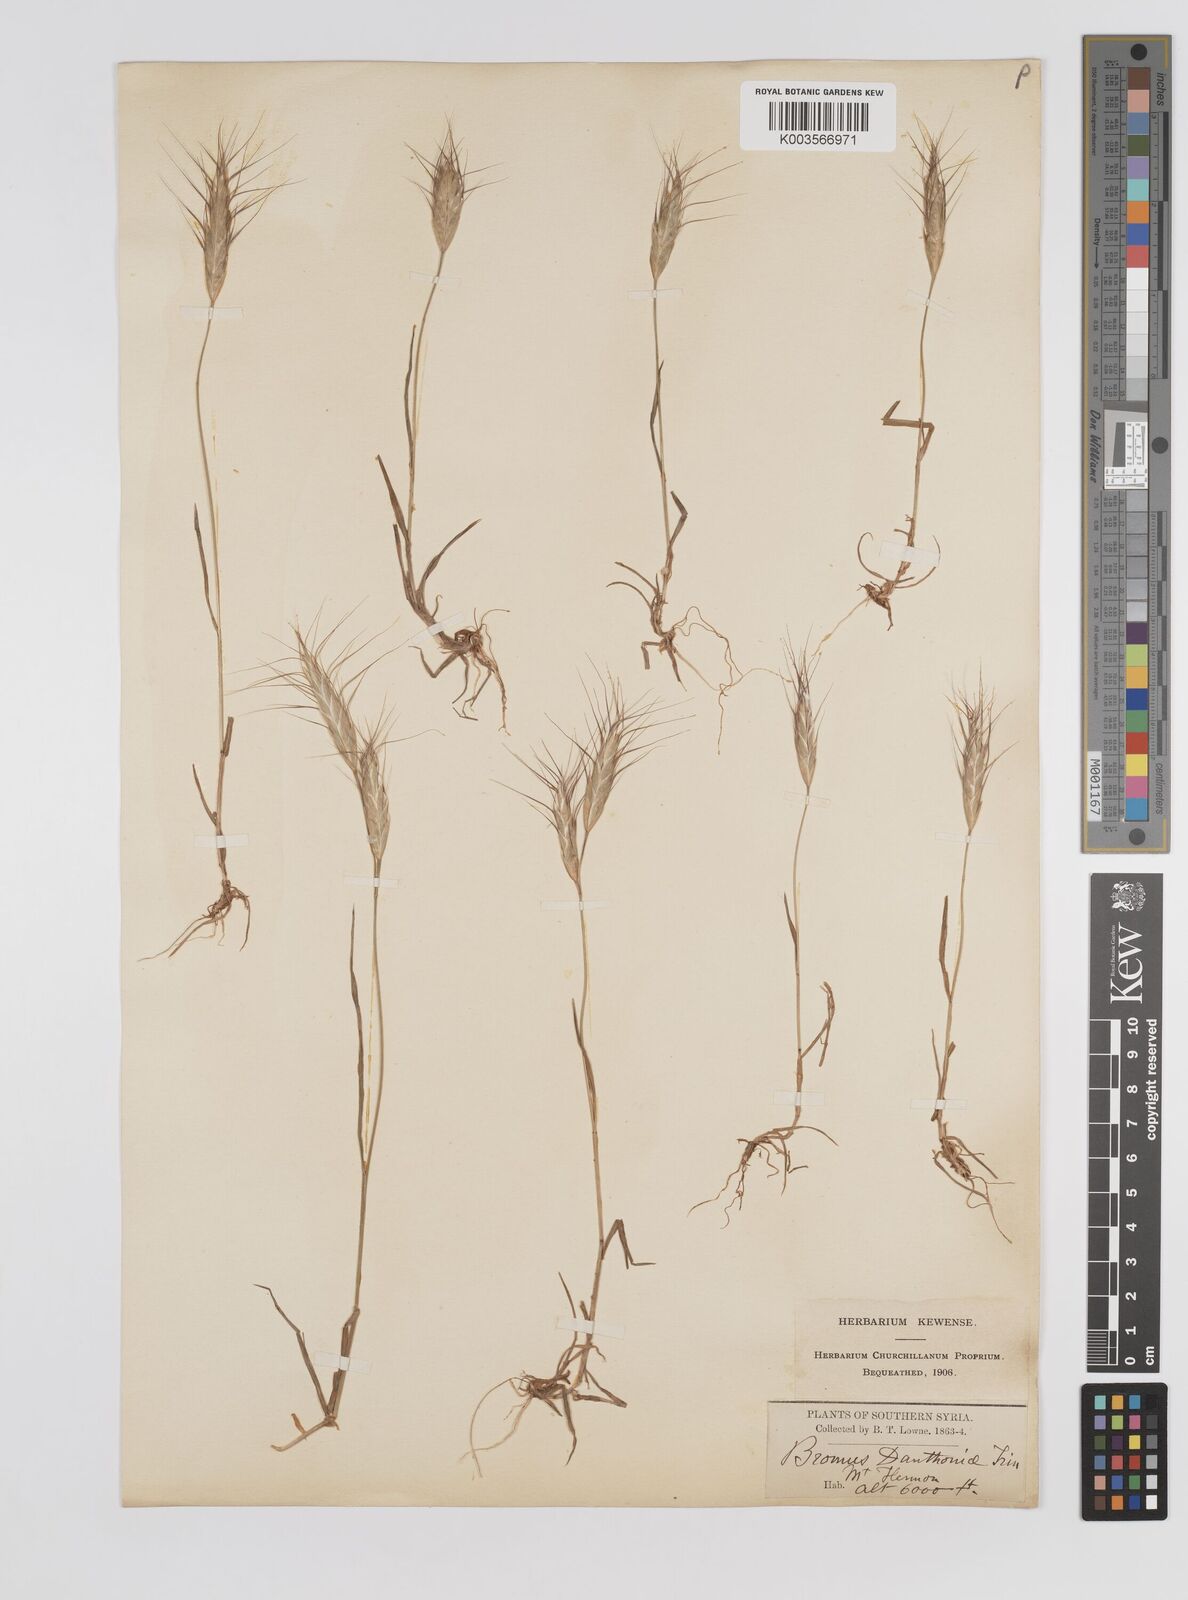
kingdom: Plantae
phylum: Tracheophyta
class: Liliopsida
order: Poales
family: Poaceae
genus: Bromus
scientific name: Bromus danthoniae
